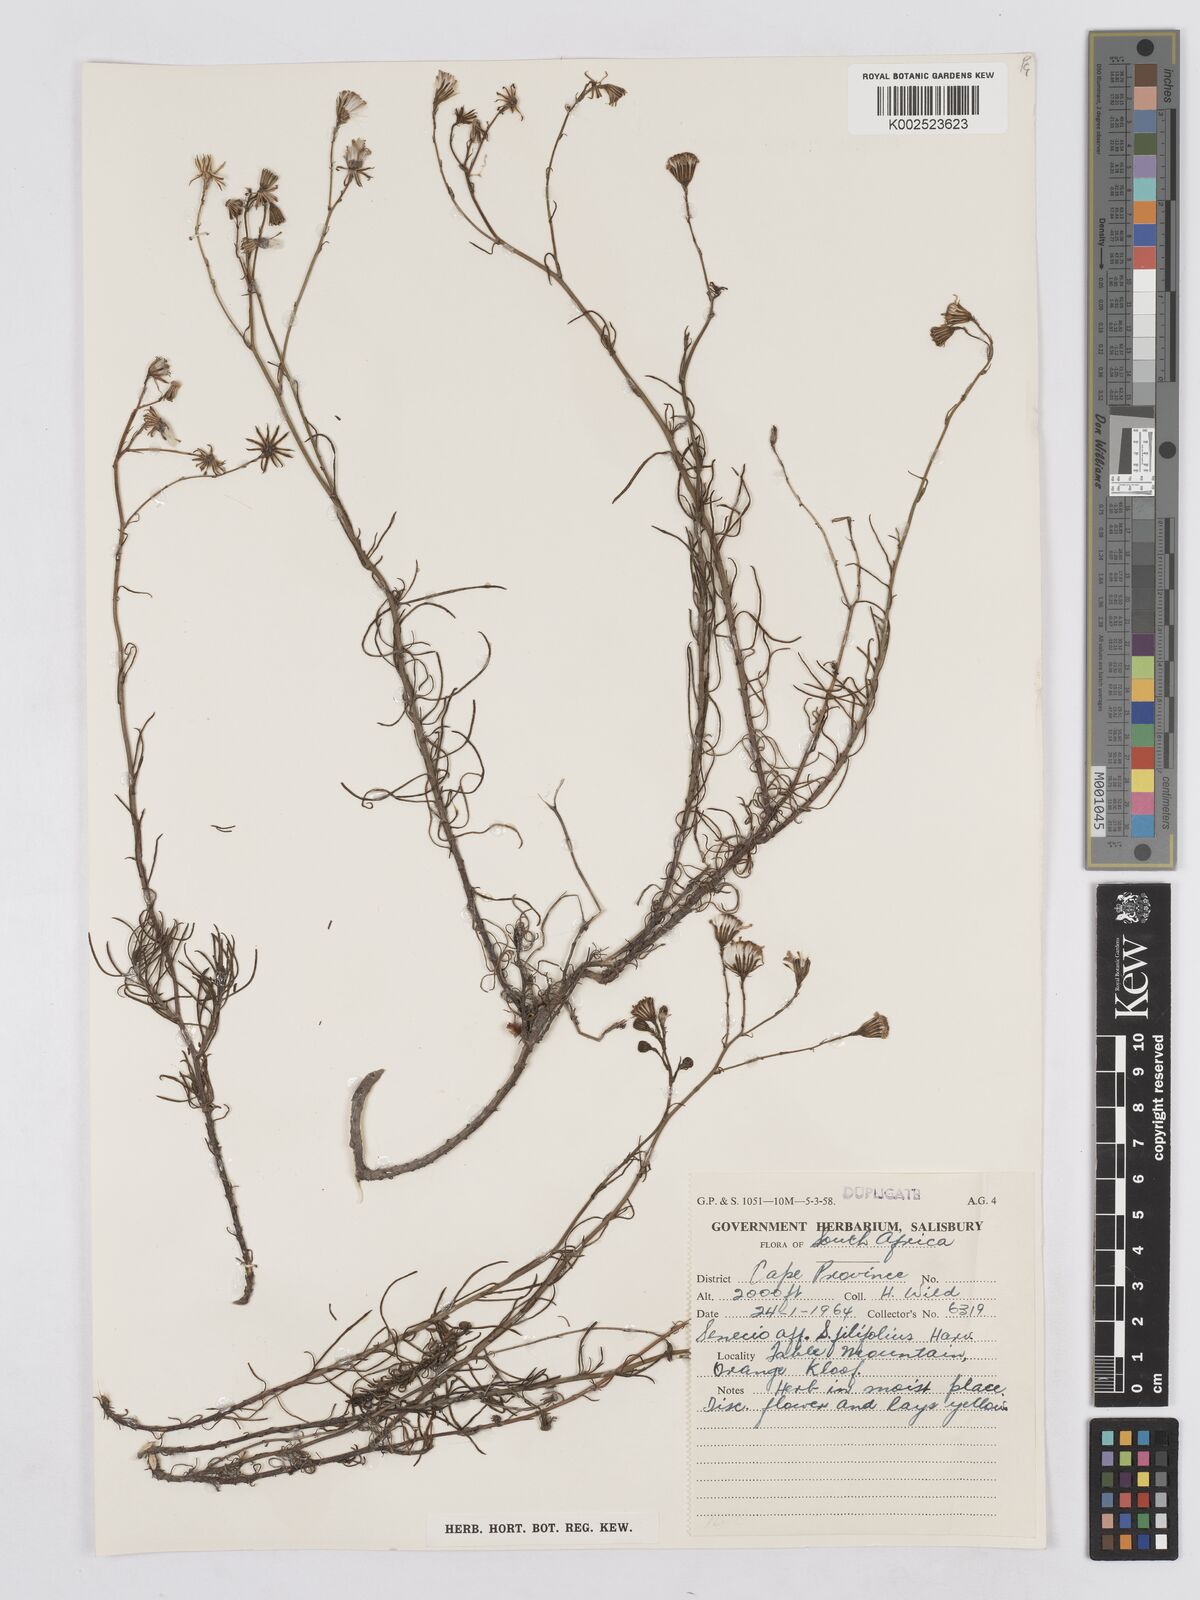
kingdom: Plantae
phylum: Tracheophyta
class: Magnoliopsida
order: Asterales
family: Asteraceae
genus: Senecio
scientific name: Senecio
